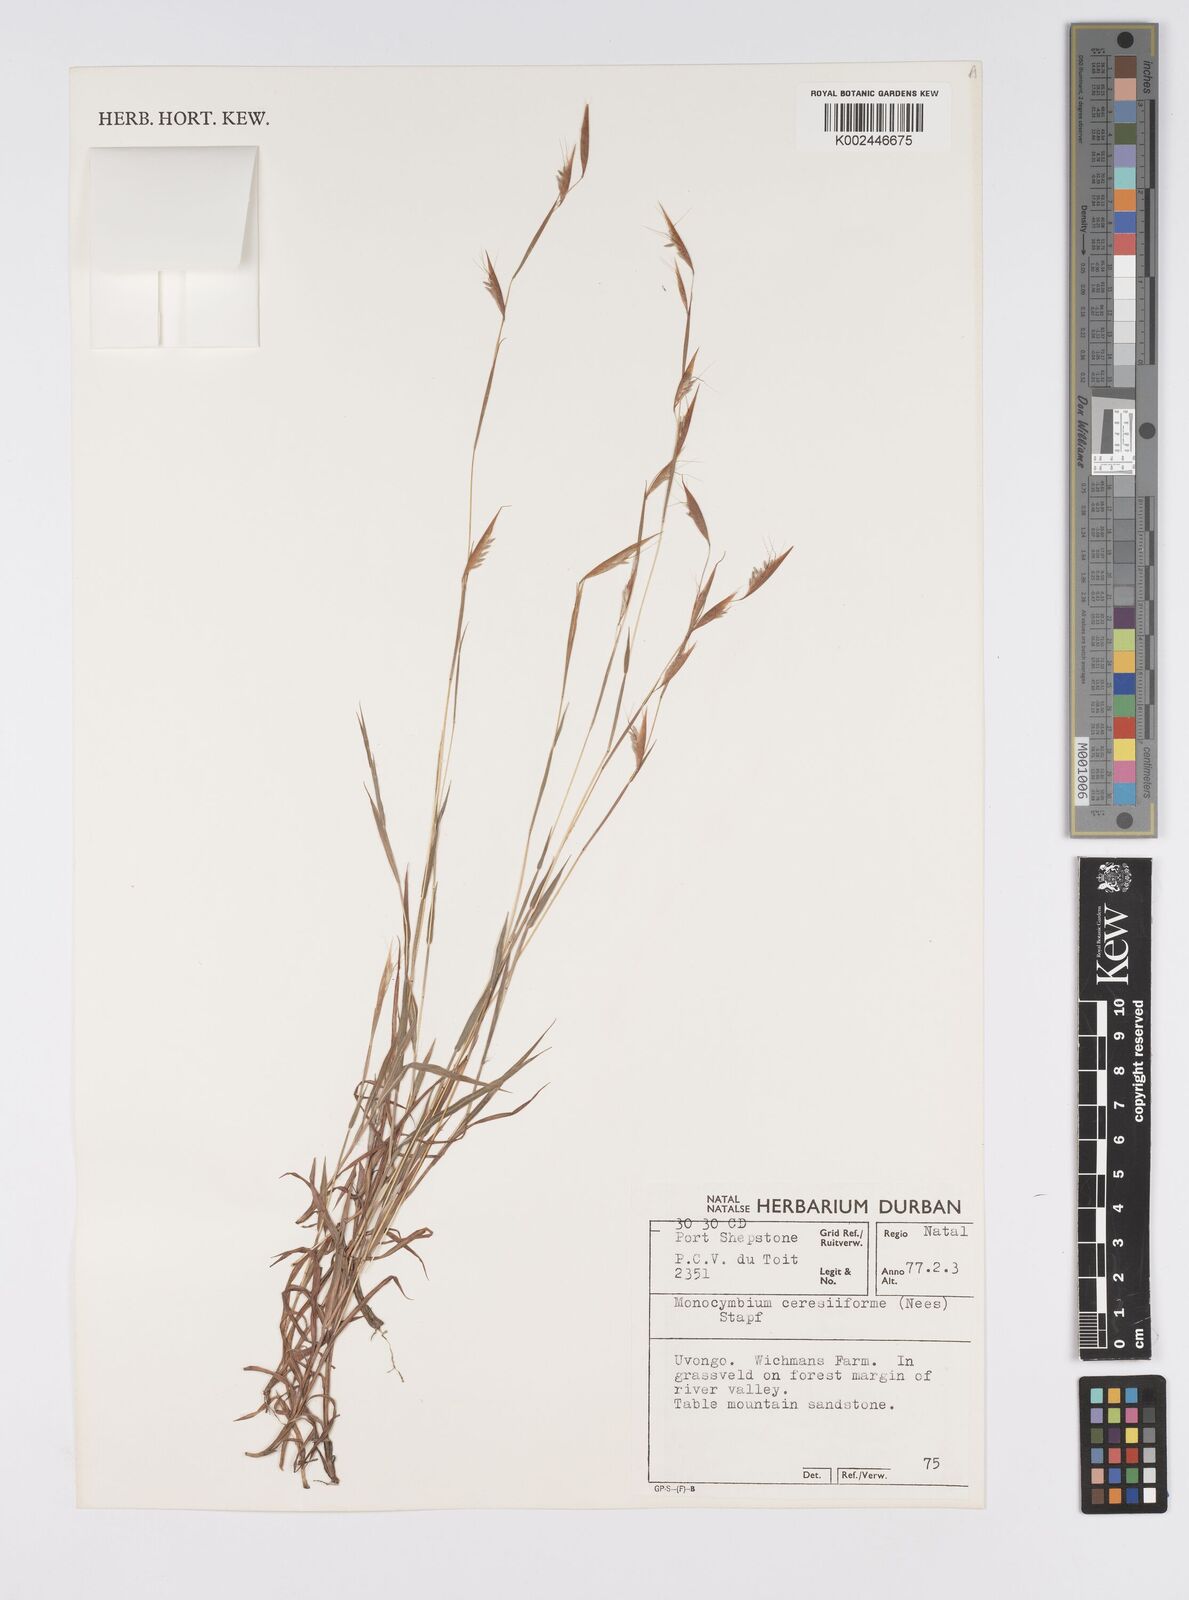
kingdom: Plantae
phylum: Tracheophyta
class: Liliopsida
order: Poales
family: Poaceae
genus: Monocymbium
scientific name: Monocymbium ceresiiforme
